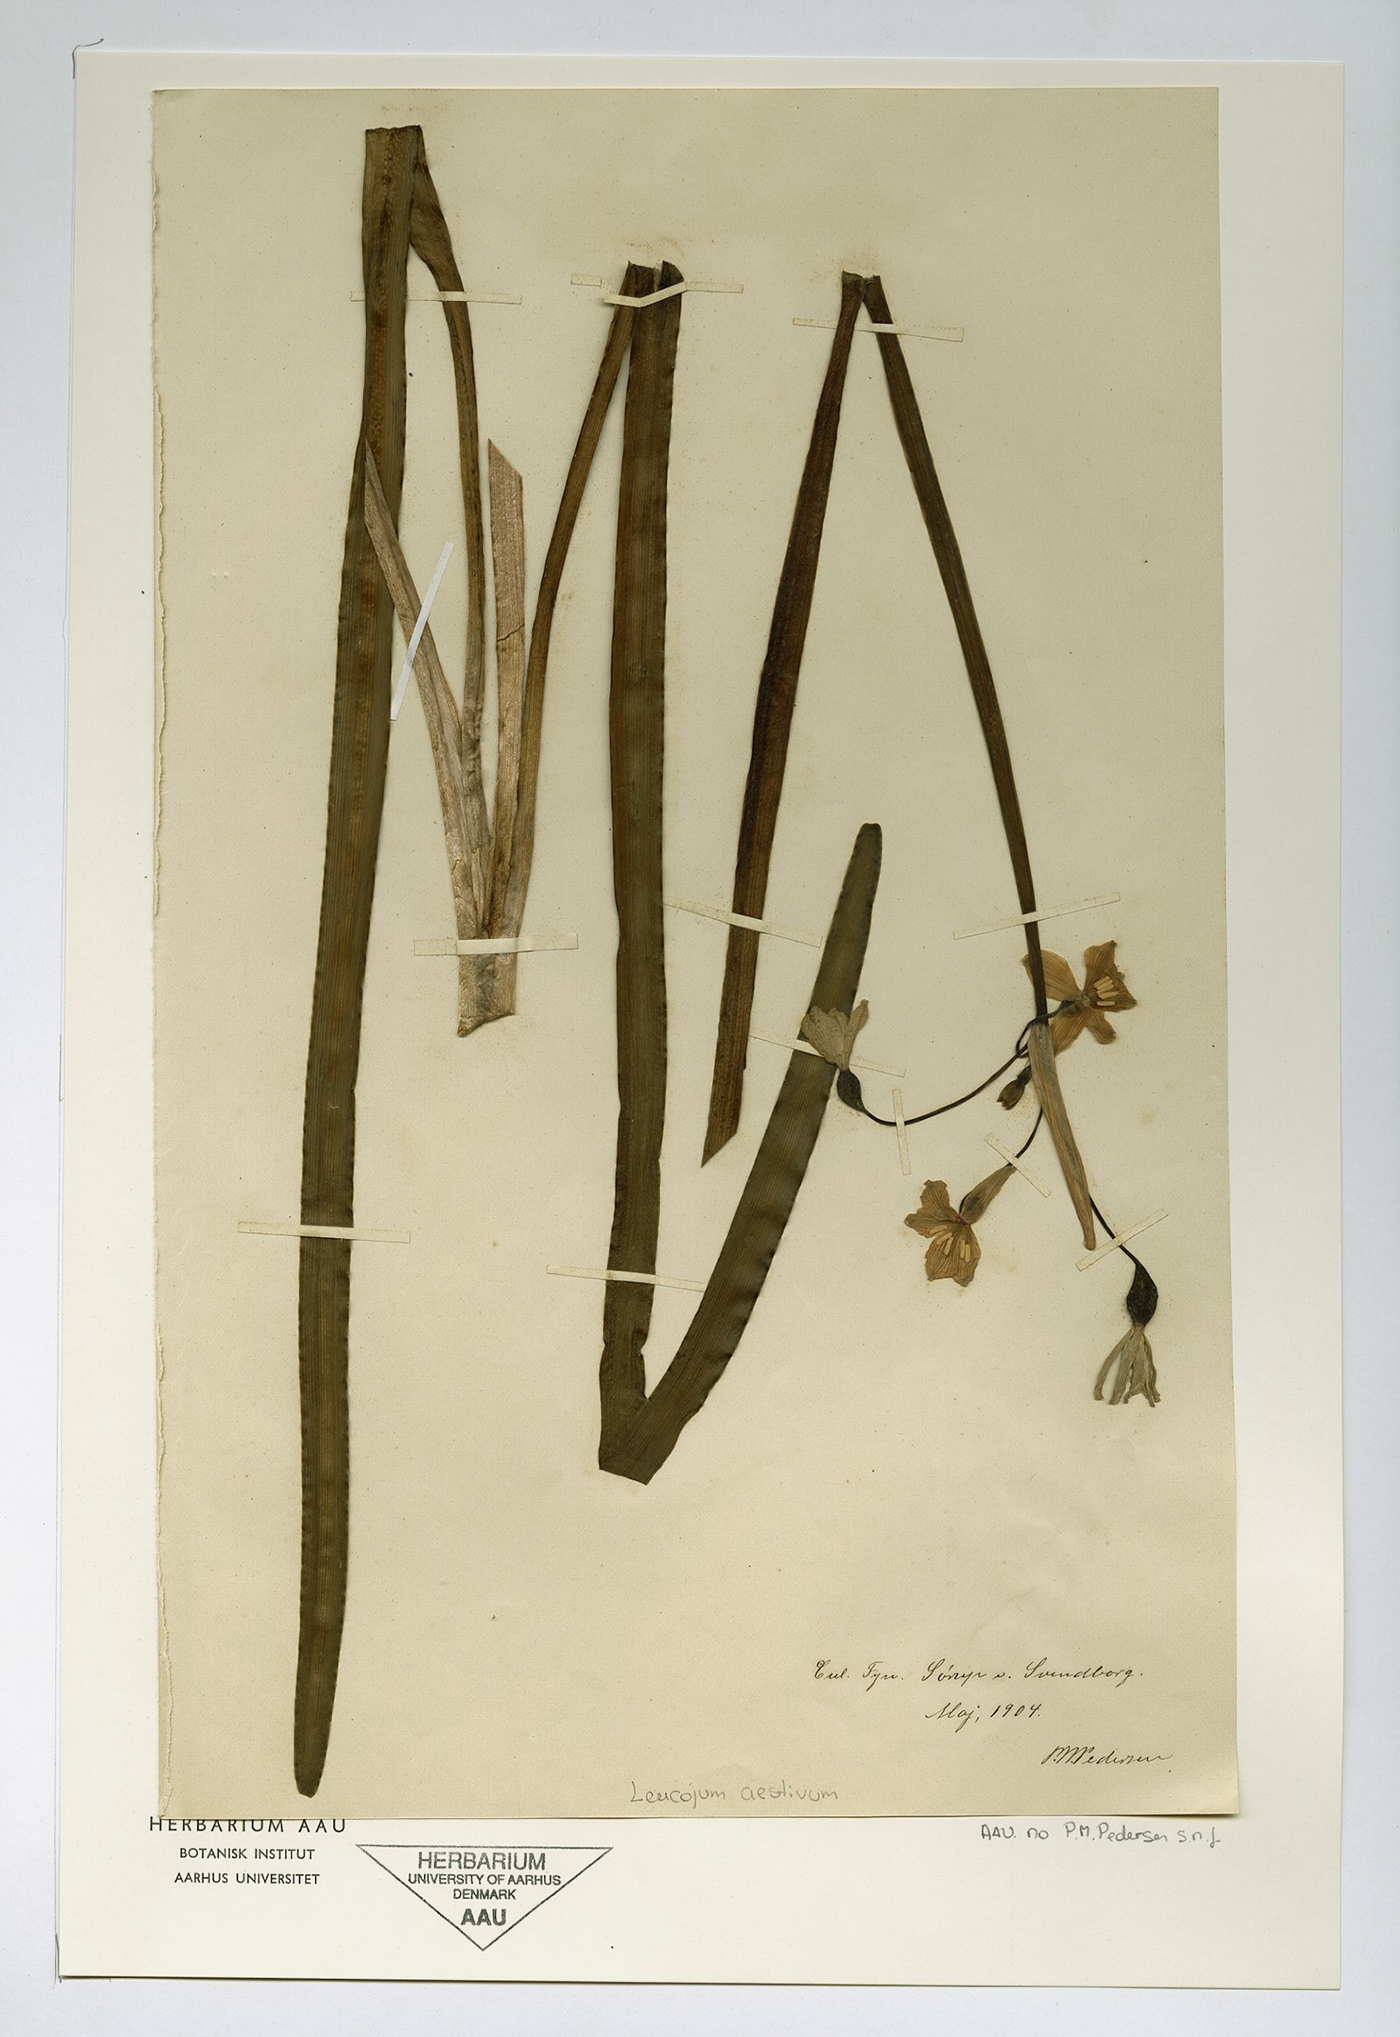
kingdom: Plantae
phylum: Tracheophyta
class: Liliopsida
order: Asparagales
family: Amaryllidaceae
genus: Leucojum
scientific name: Leucojum aestivum
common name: Summer snowflake
